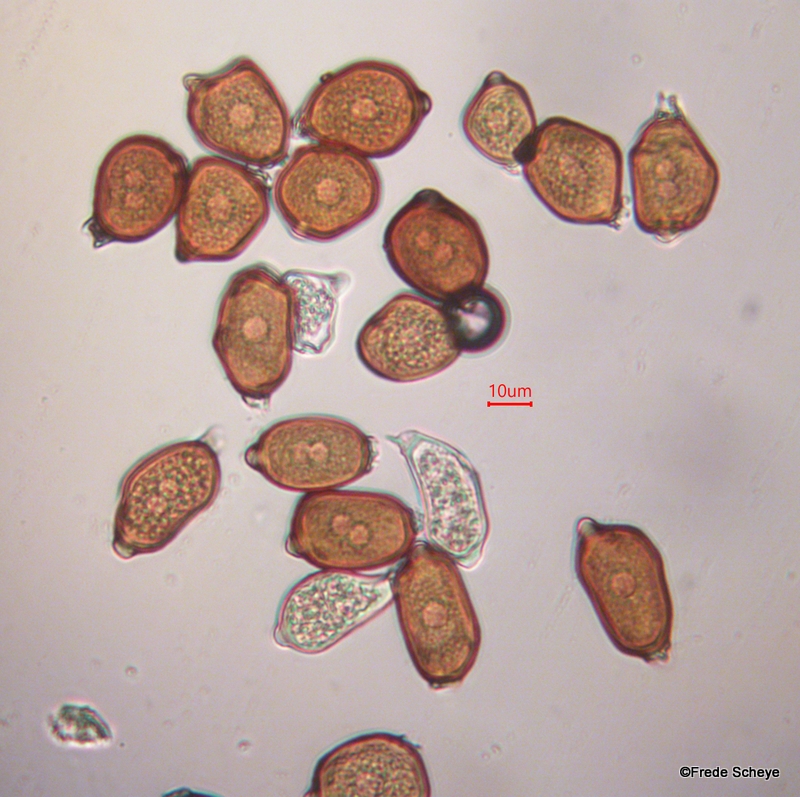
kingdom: Fungi
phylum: Basidiomycota
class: Pucciniomycetes
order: Pucciniales
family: Pucciniaceae
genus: Uromyces
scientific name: Uromyces ficariae
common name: vorterod-encellerust
